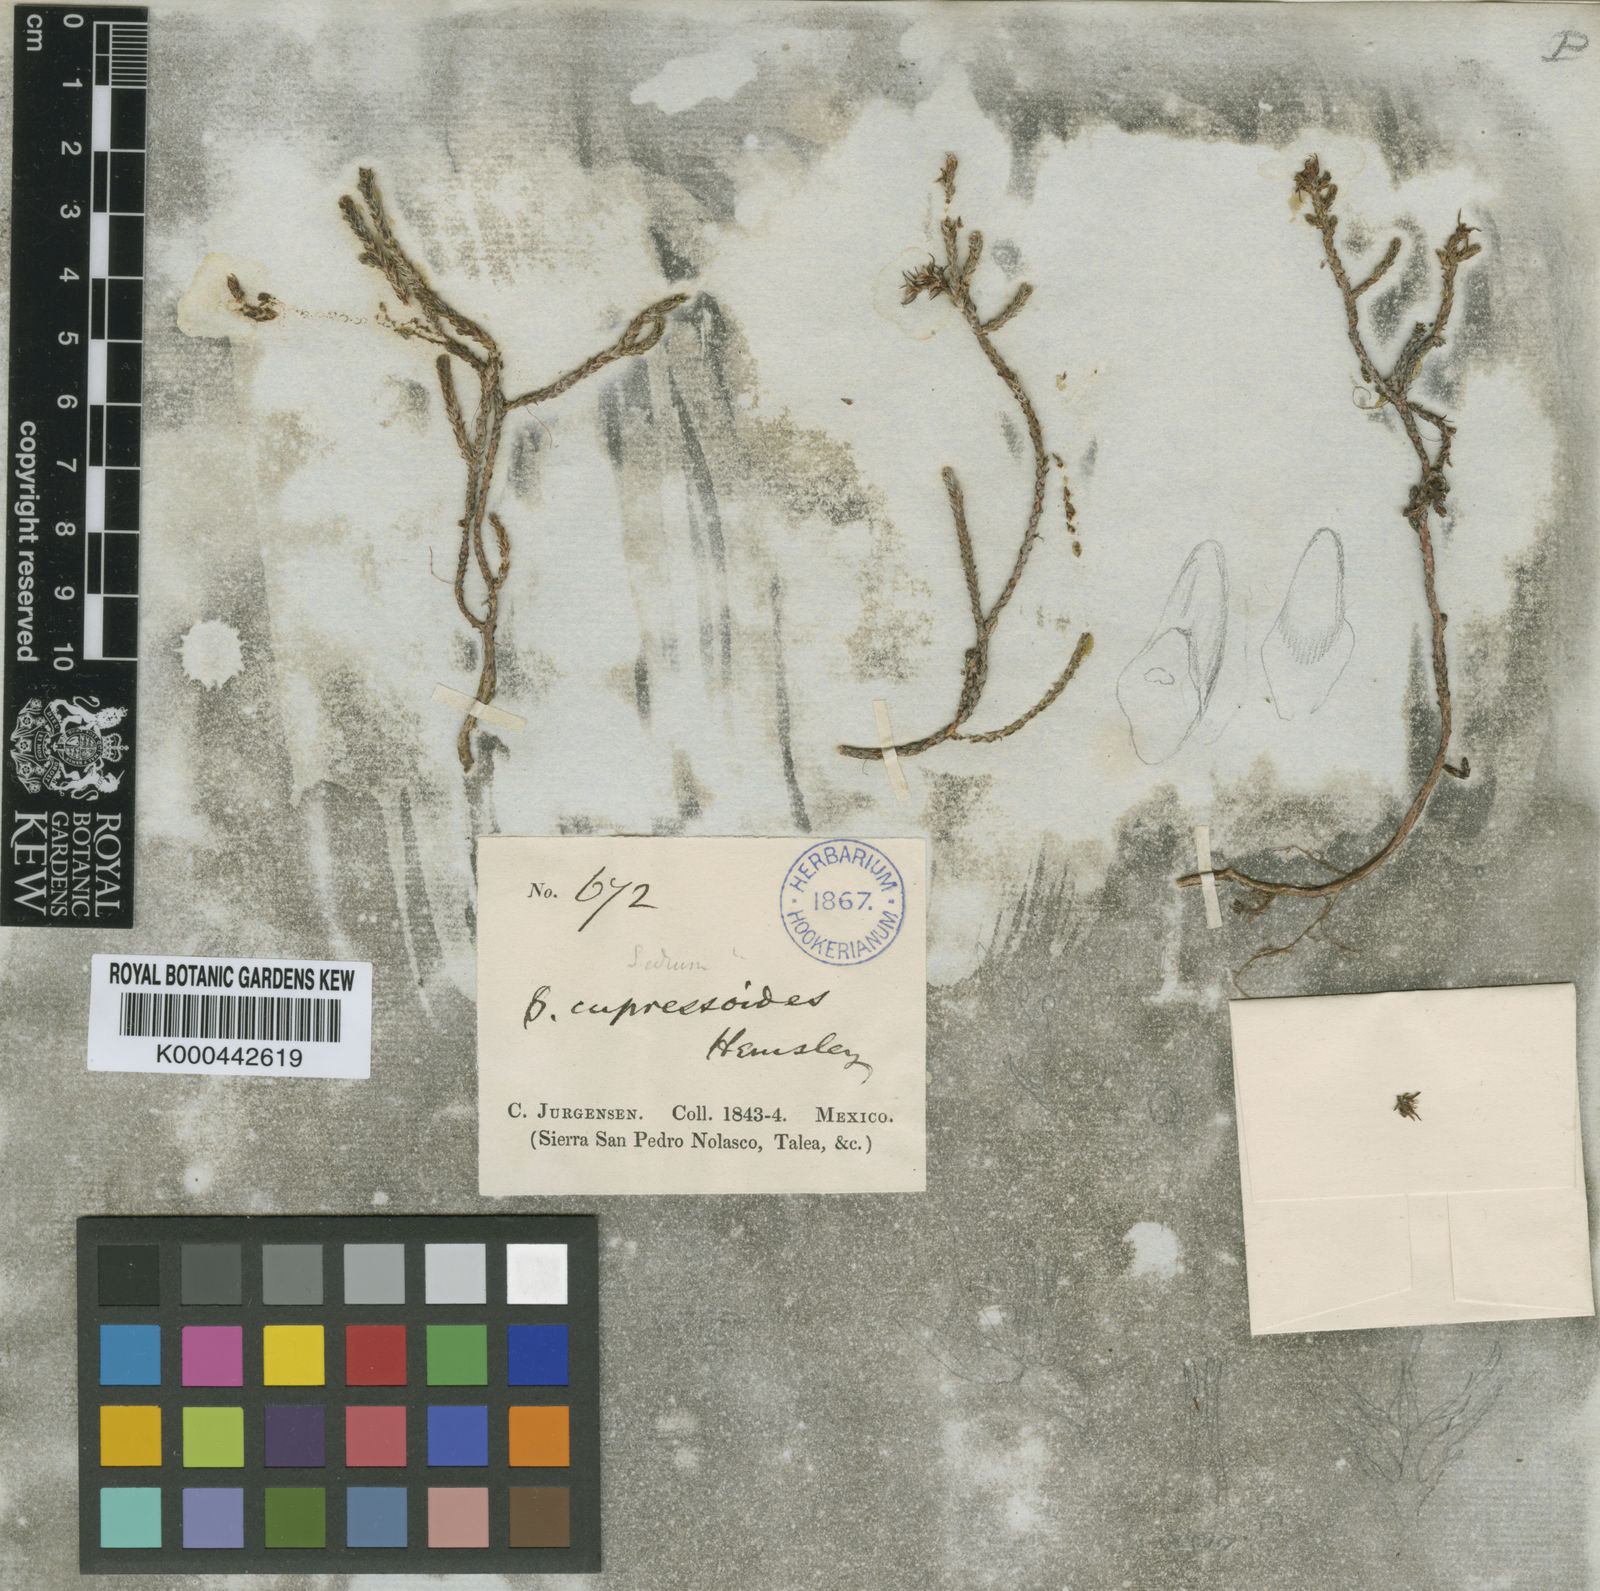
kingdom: Plantae
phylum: Tracheophyta
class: Magnoliopsida
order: Saxifragales
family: Crassulaceae
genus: Sedum
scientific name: Sedum cupressoides
